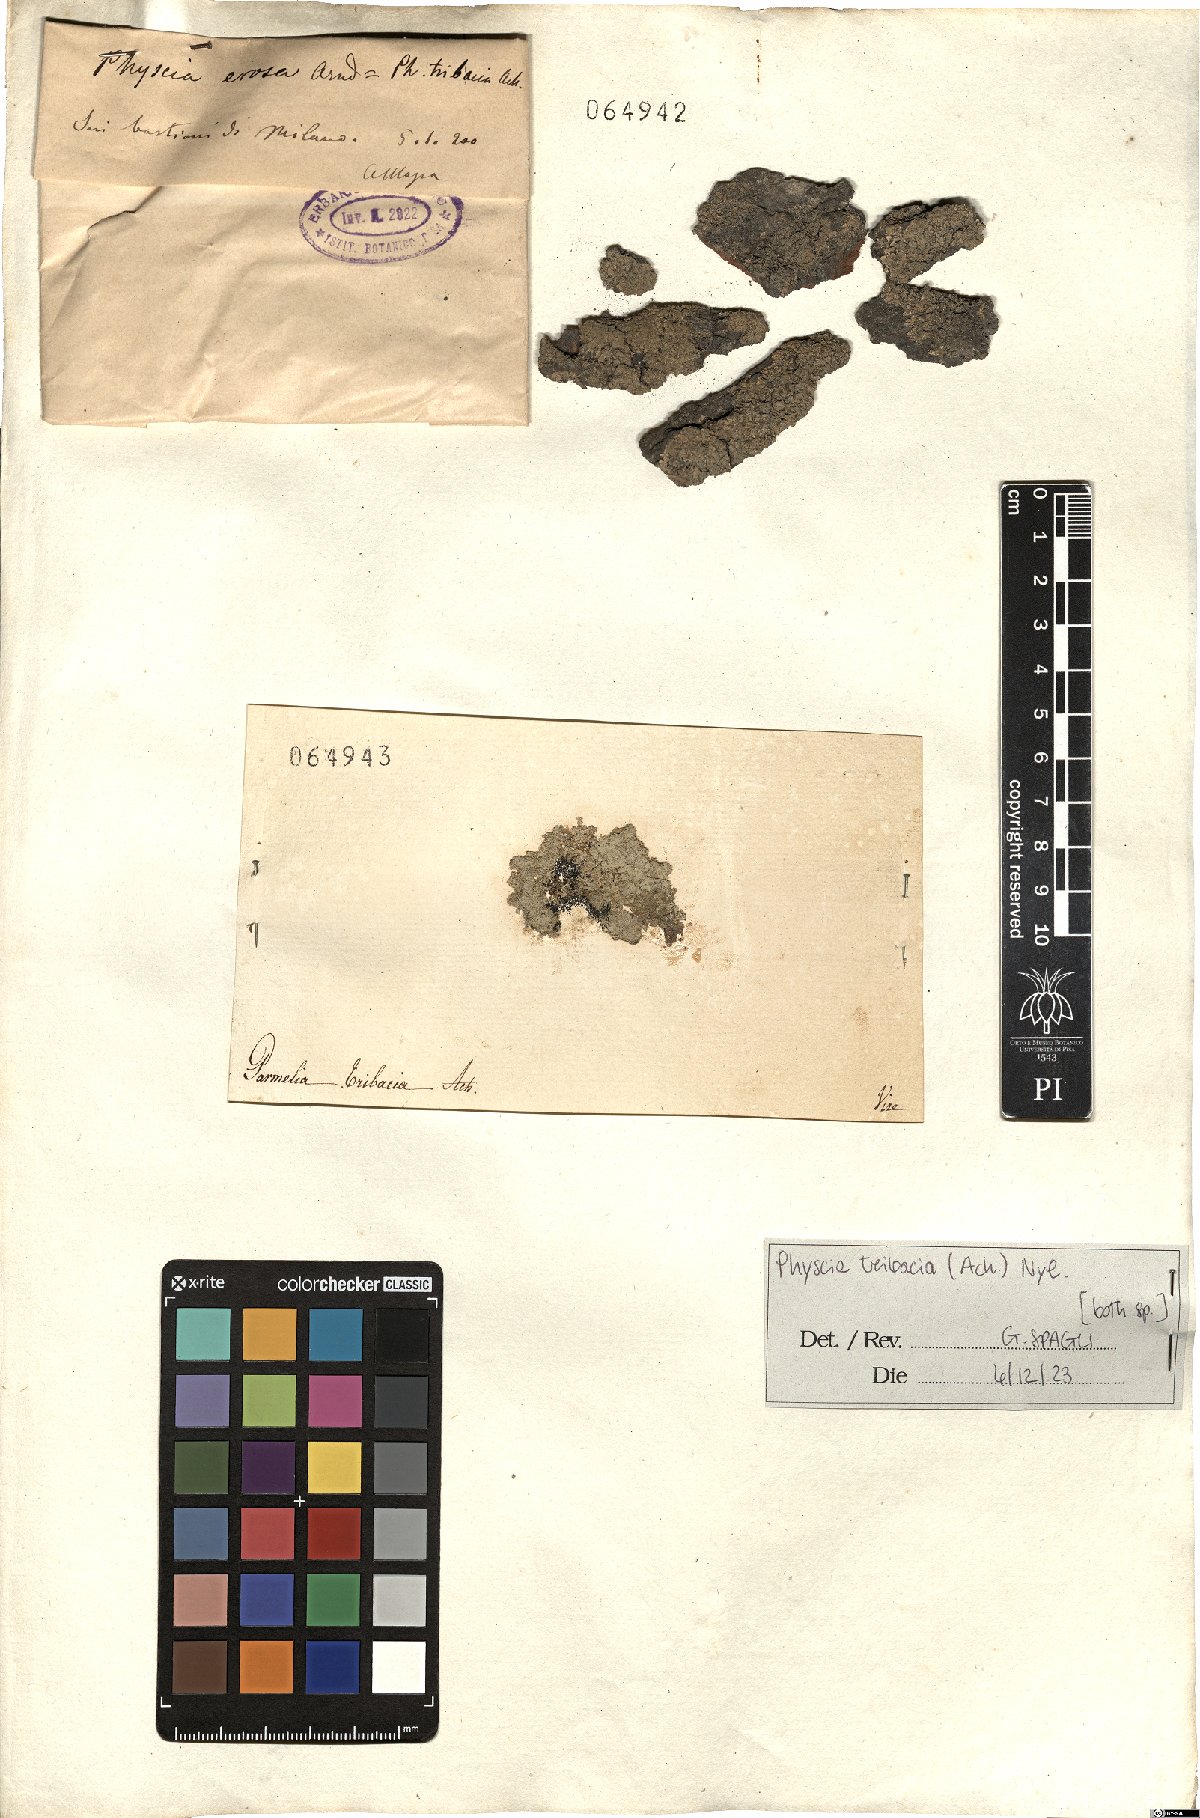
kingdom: Fungi
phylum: Ascomycota
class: Lecanoromycetes
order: Caliciales
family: Physciaceae
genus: Physcia
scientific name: Physcia tribacia
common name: Beaded rosette lichen
